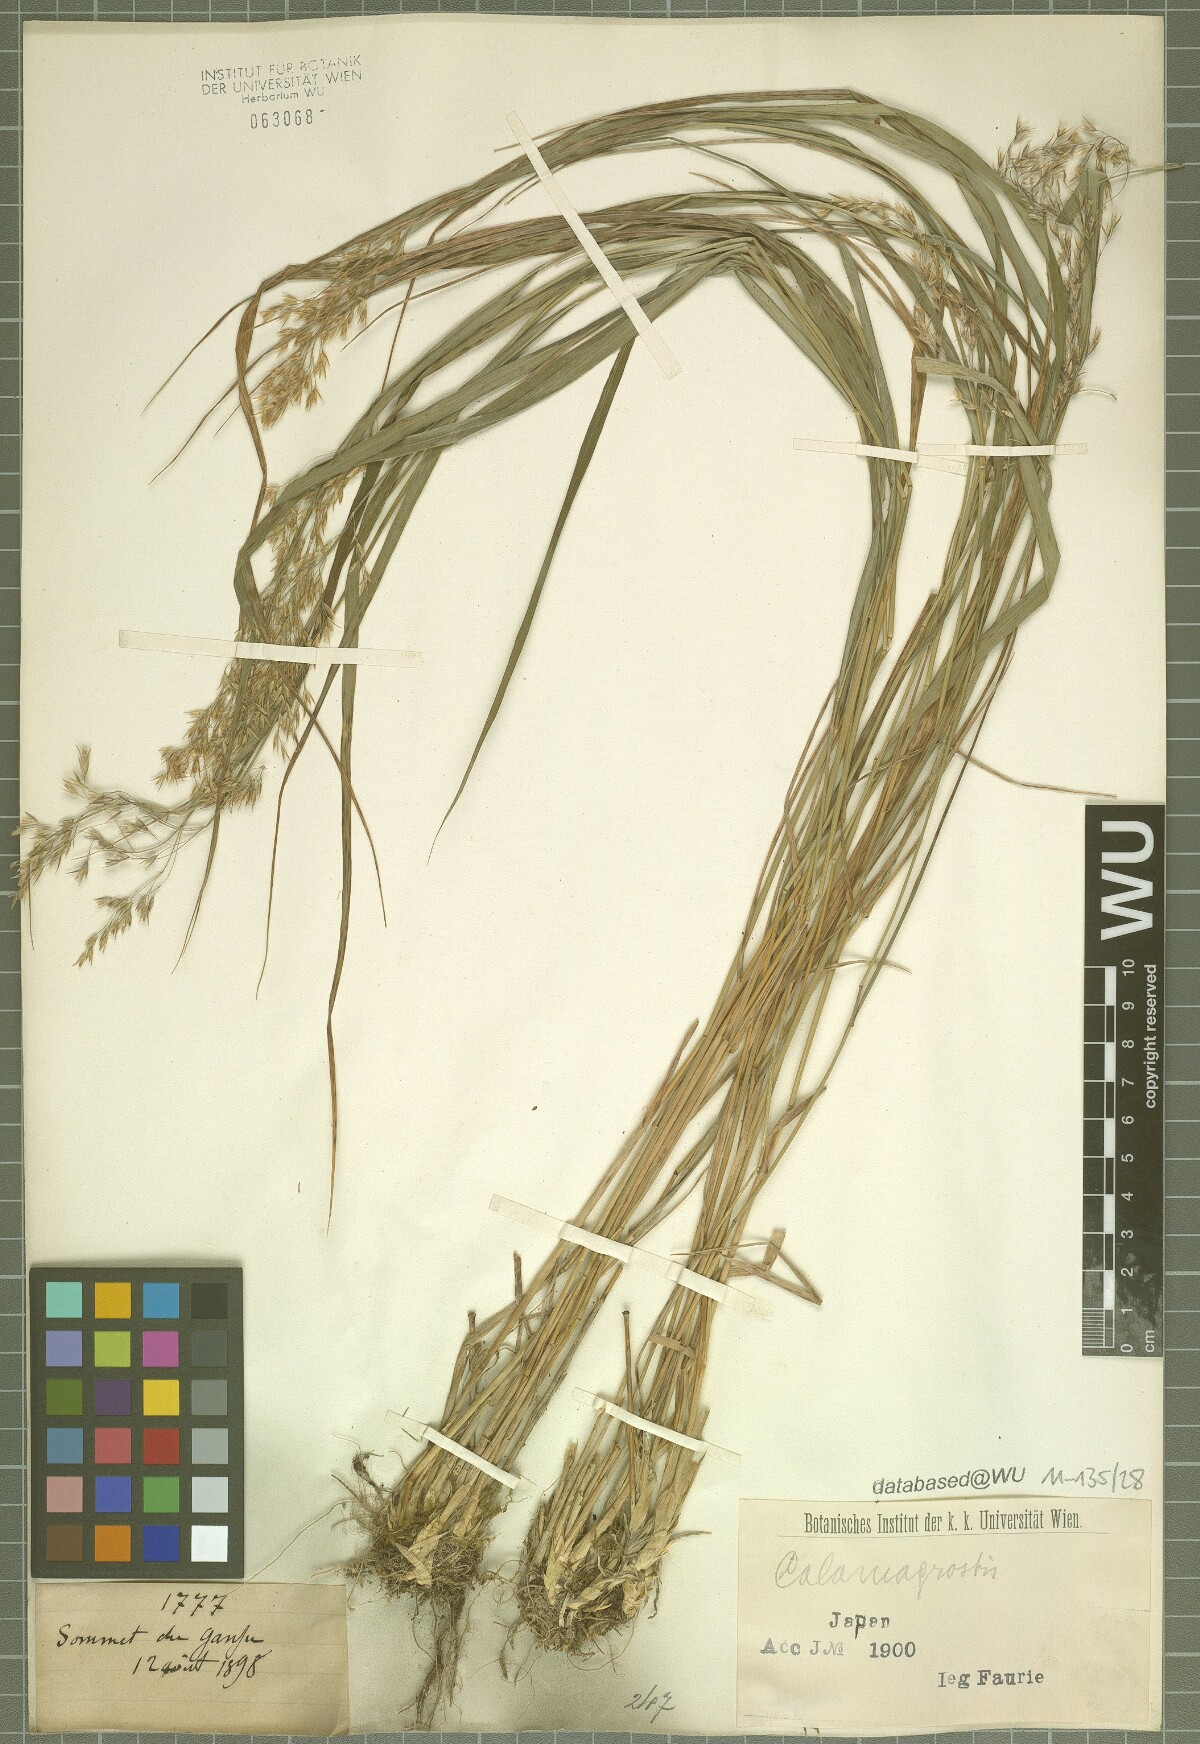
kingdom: Plantae
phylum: Tracheophyta
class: Liliopsida
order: Poales
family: Poaceae
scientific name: Poaceae
